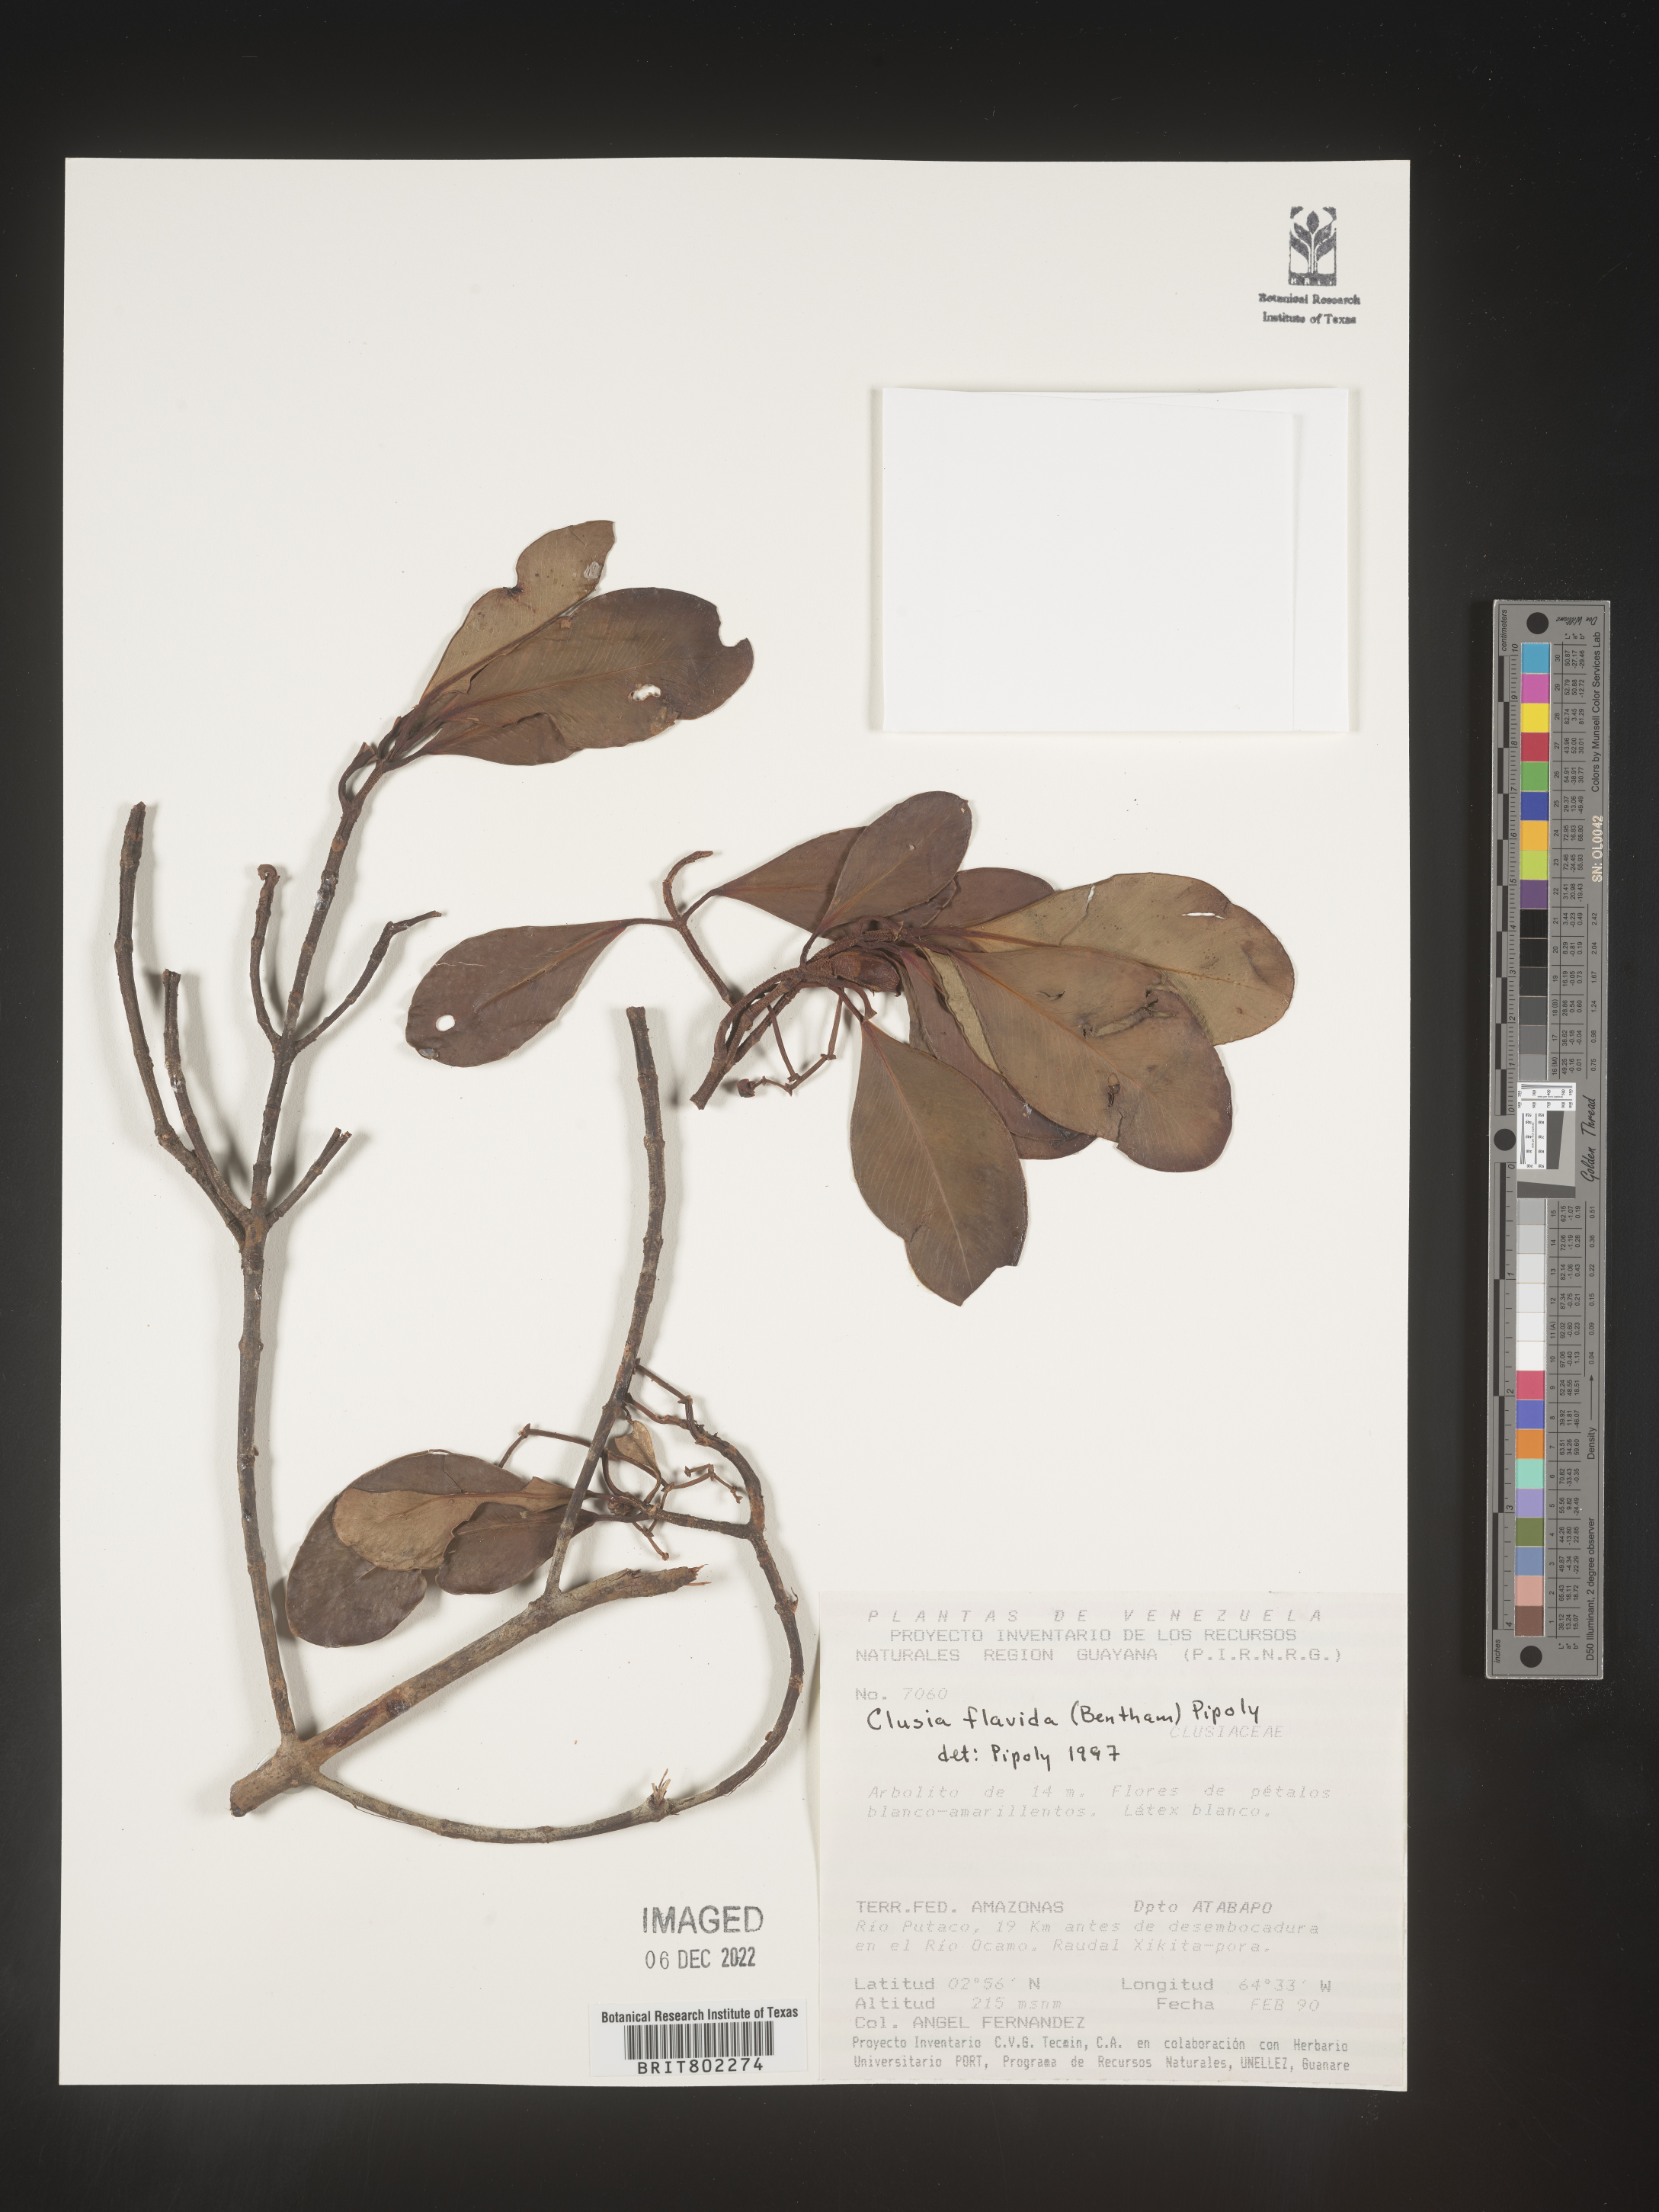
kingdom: Plantae
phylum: Tracheophyta
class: Magnoliopsida
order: Malpighiales
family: Clusiaceae
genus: Clusia
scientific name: Clusia flavida
